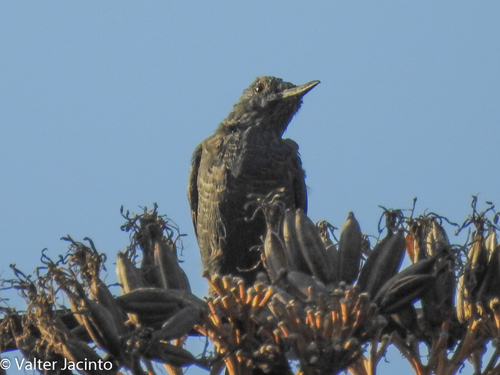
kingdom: Animalia
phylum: Chordata
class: Aves
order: Passeriformes
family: Muscicapidae
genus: Monticola
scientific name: Monticola solitarius
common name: Blue rock thrush
